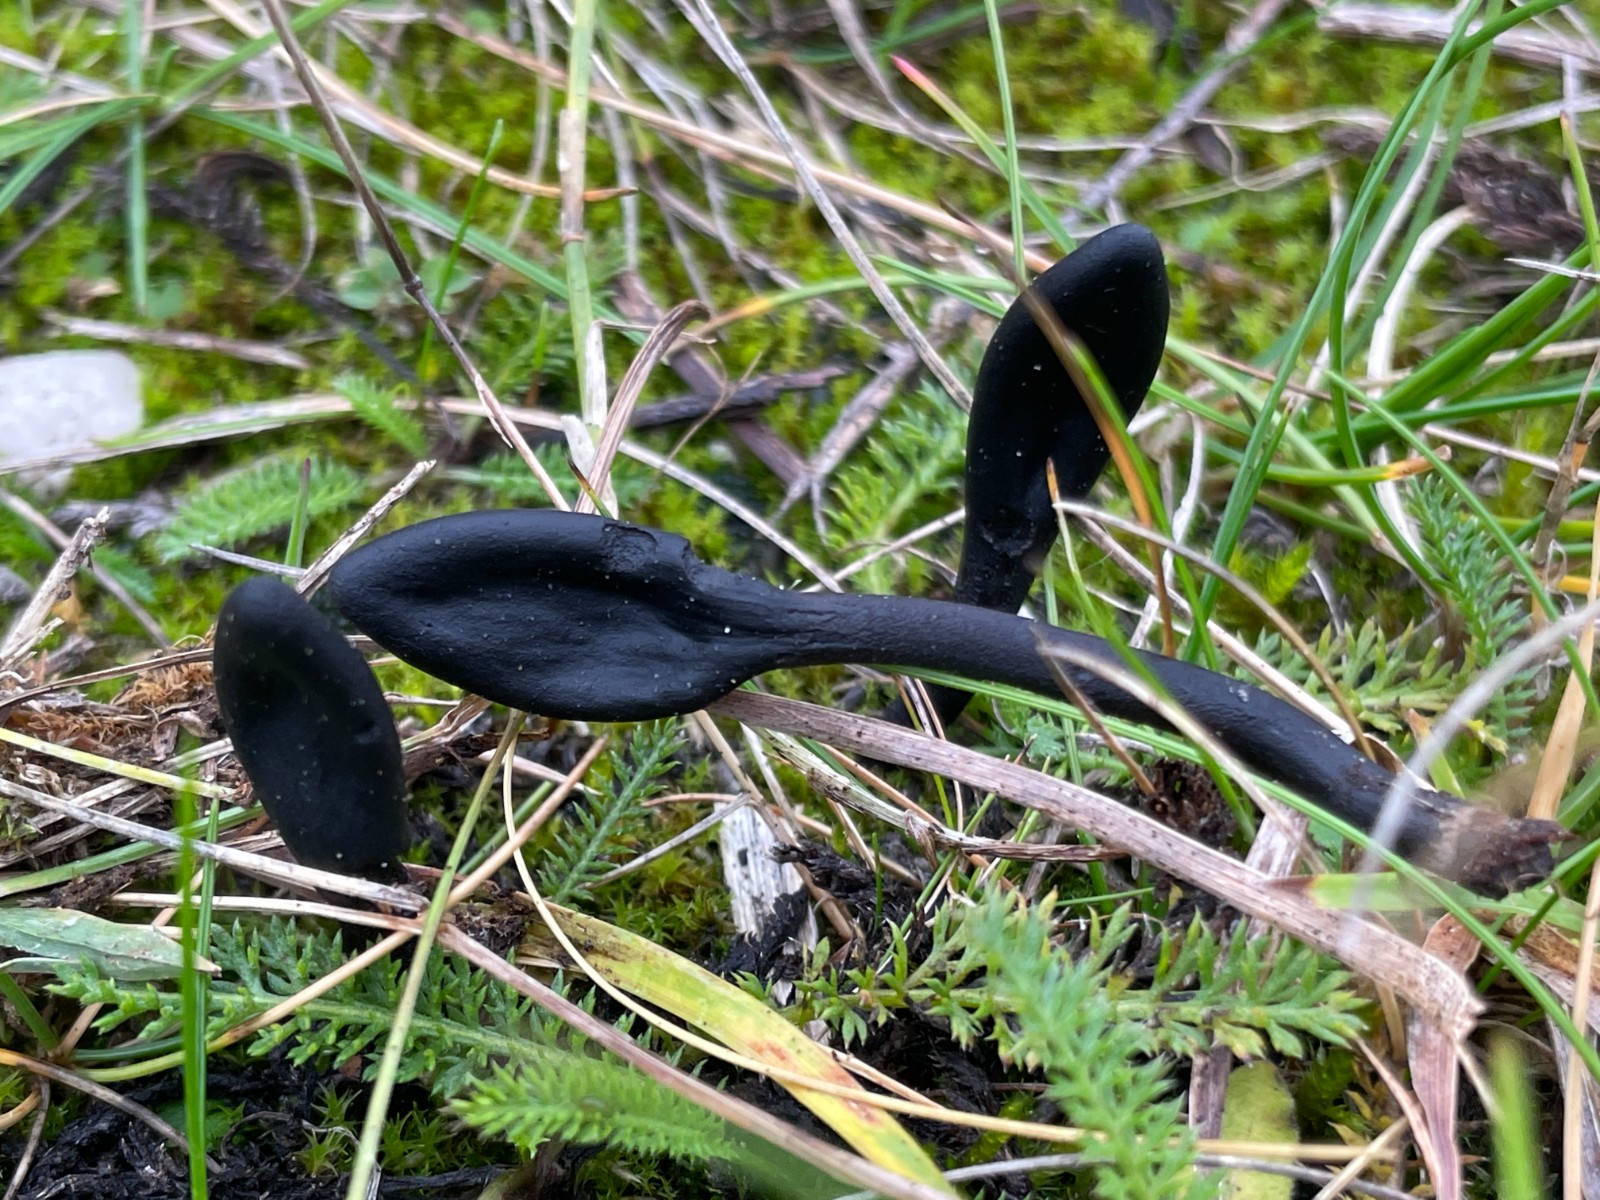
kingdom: Fungi
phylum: Ascomycota
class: Geoglossomycetes
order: Geoglossales
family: Geoglossaceae
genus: Geoglossum
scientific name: Geoglossum cookeianum
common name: bred jordtunge
